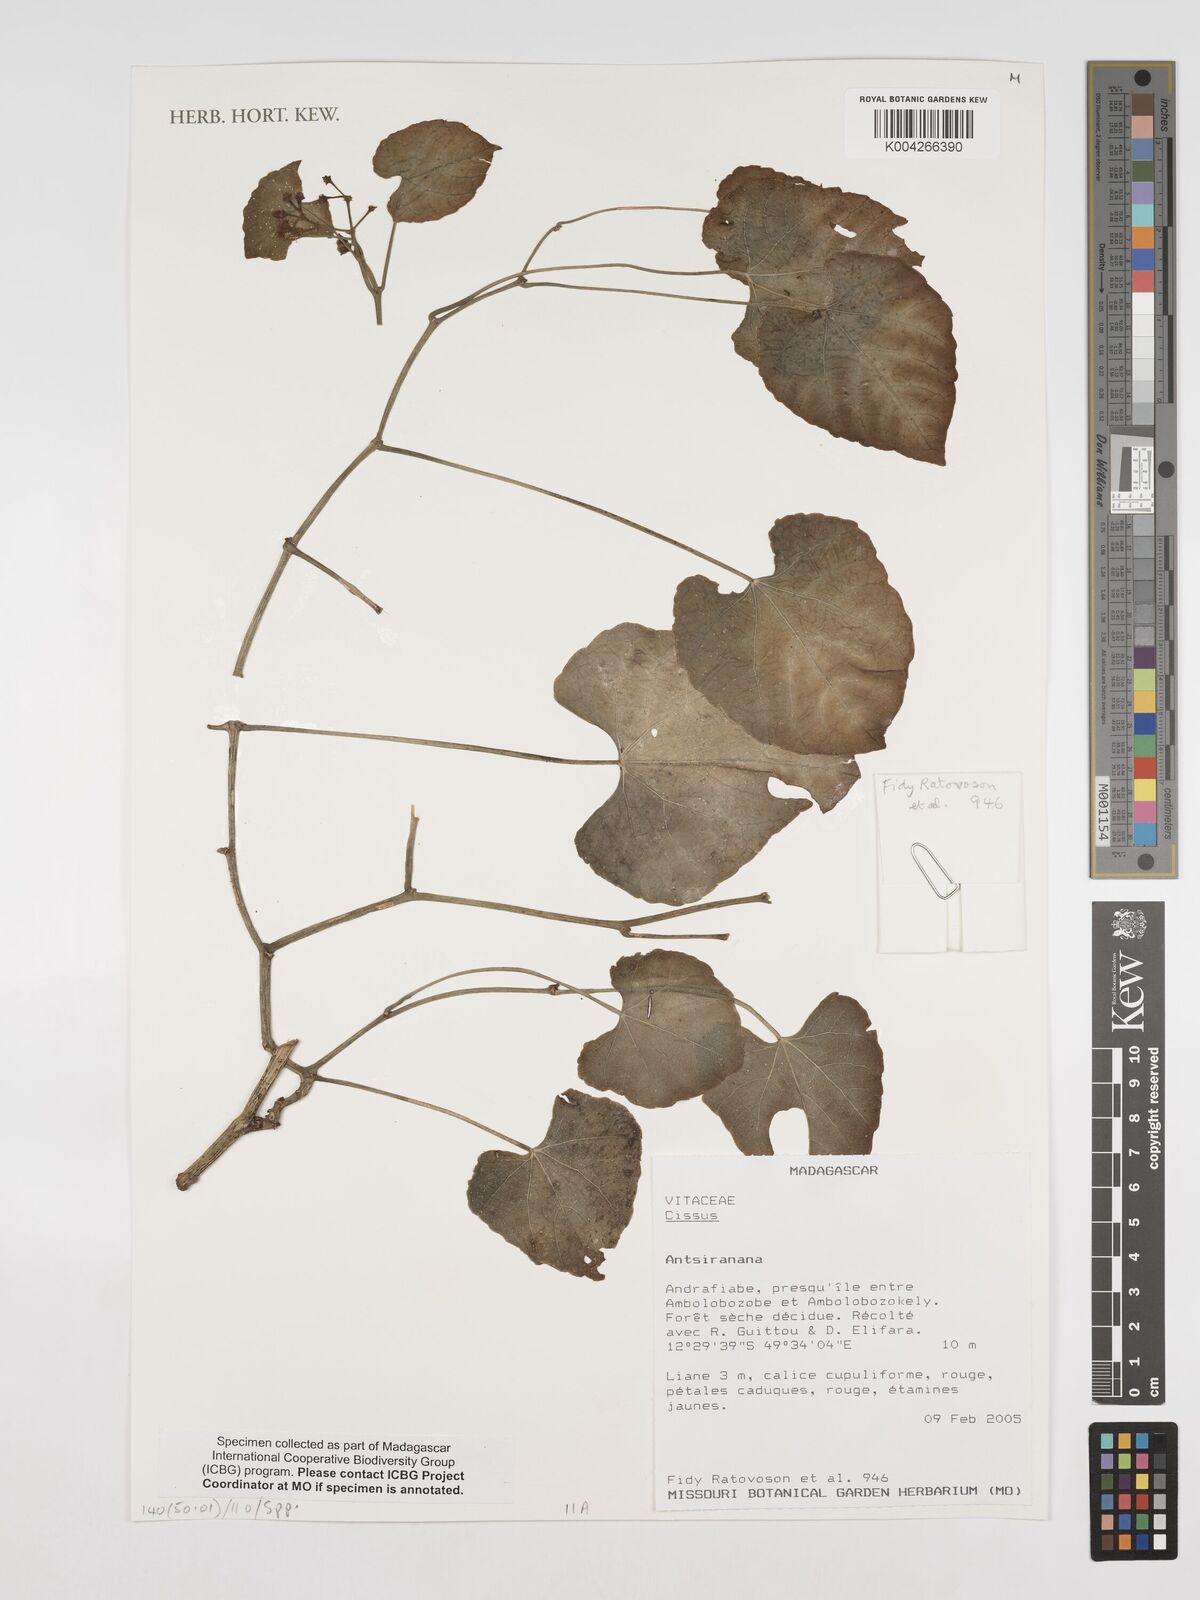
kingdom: Plantae
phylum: Tracheophyta
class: Magnoliopsida
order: Vitales
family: Vitaceae
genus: Cissus
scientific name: Cissus
